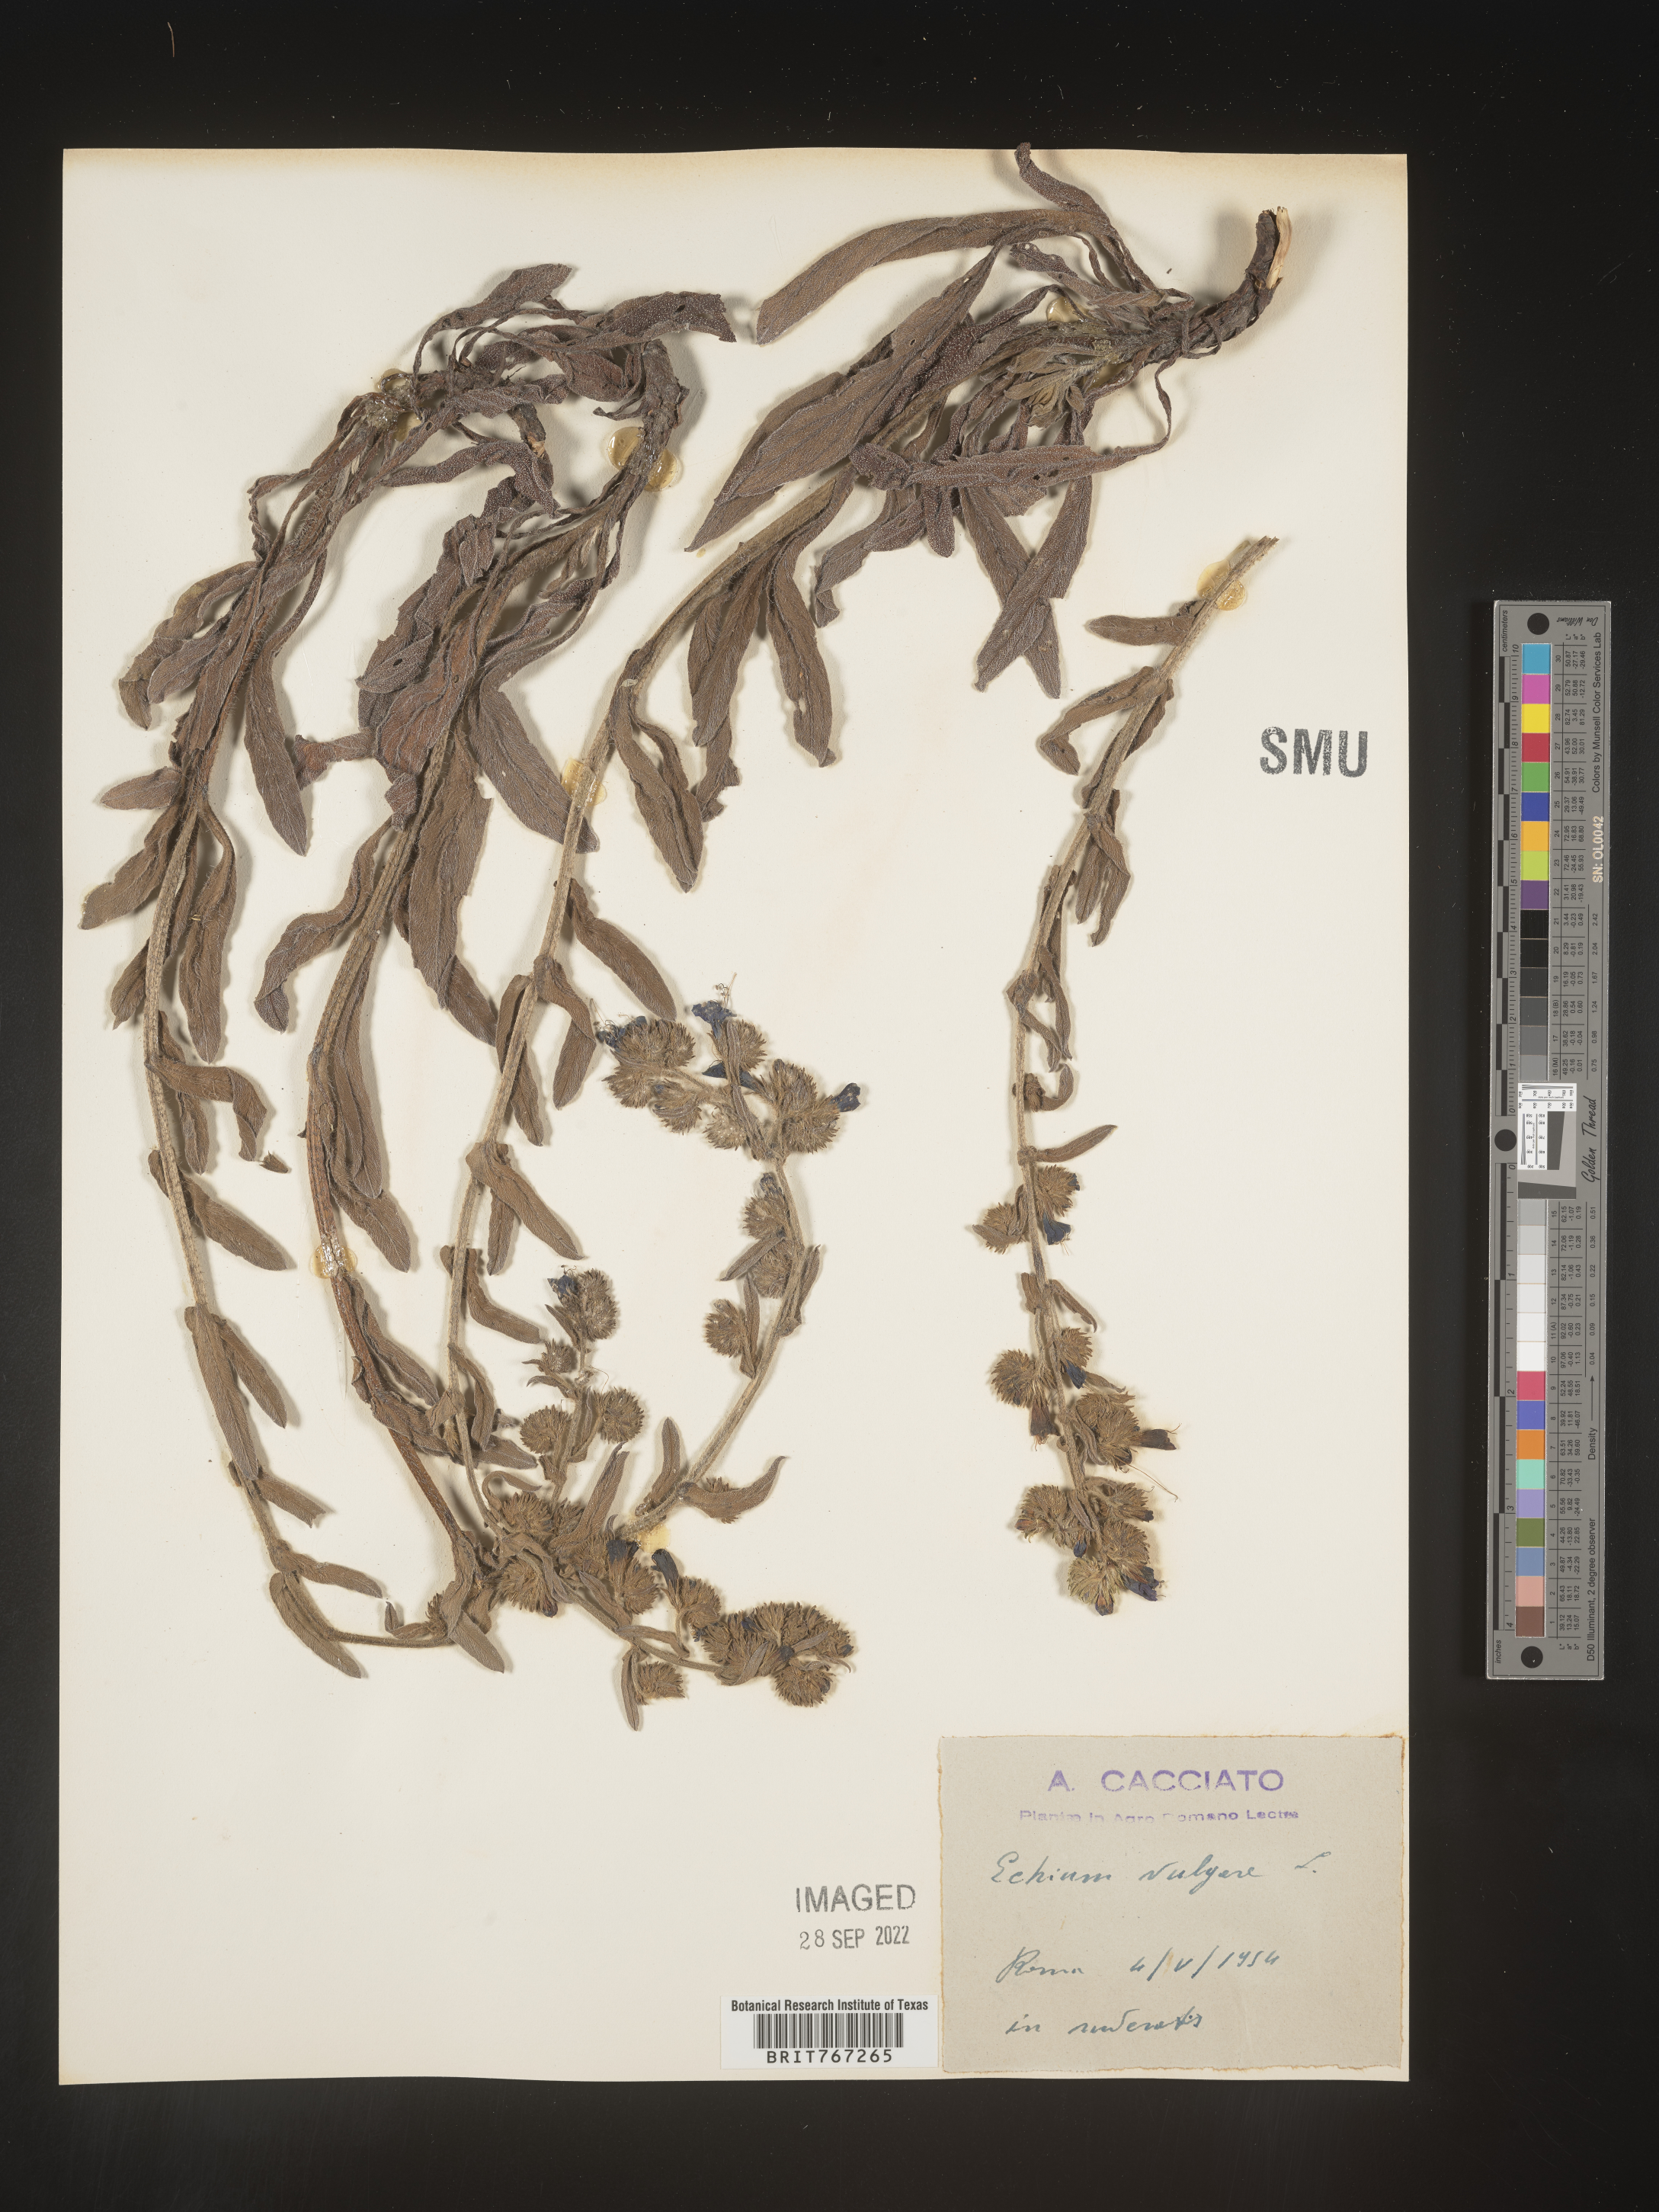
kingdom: Plantae
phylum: Tracheophyta
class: Magnoliopsida
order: Boraginales
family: Boraginaceae
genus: Echium
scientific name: Echium
